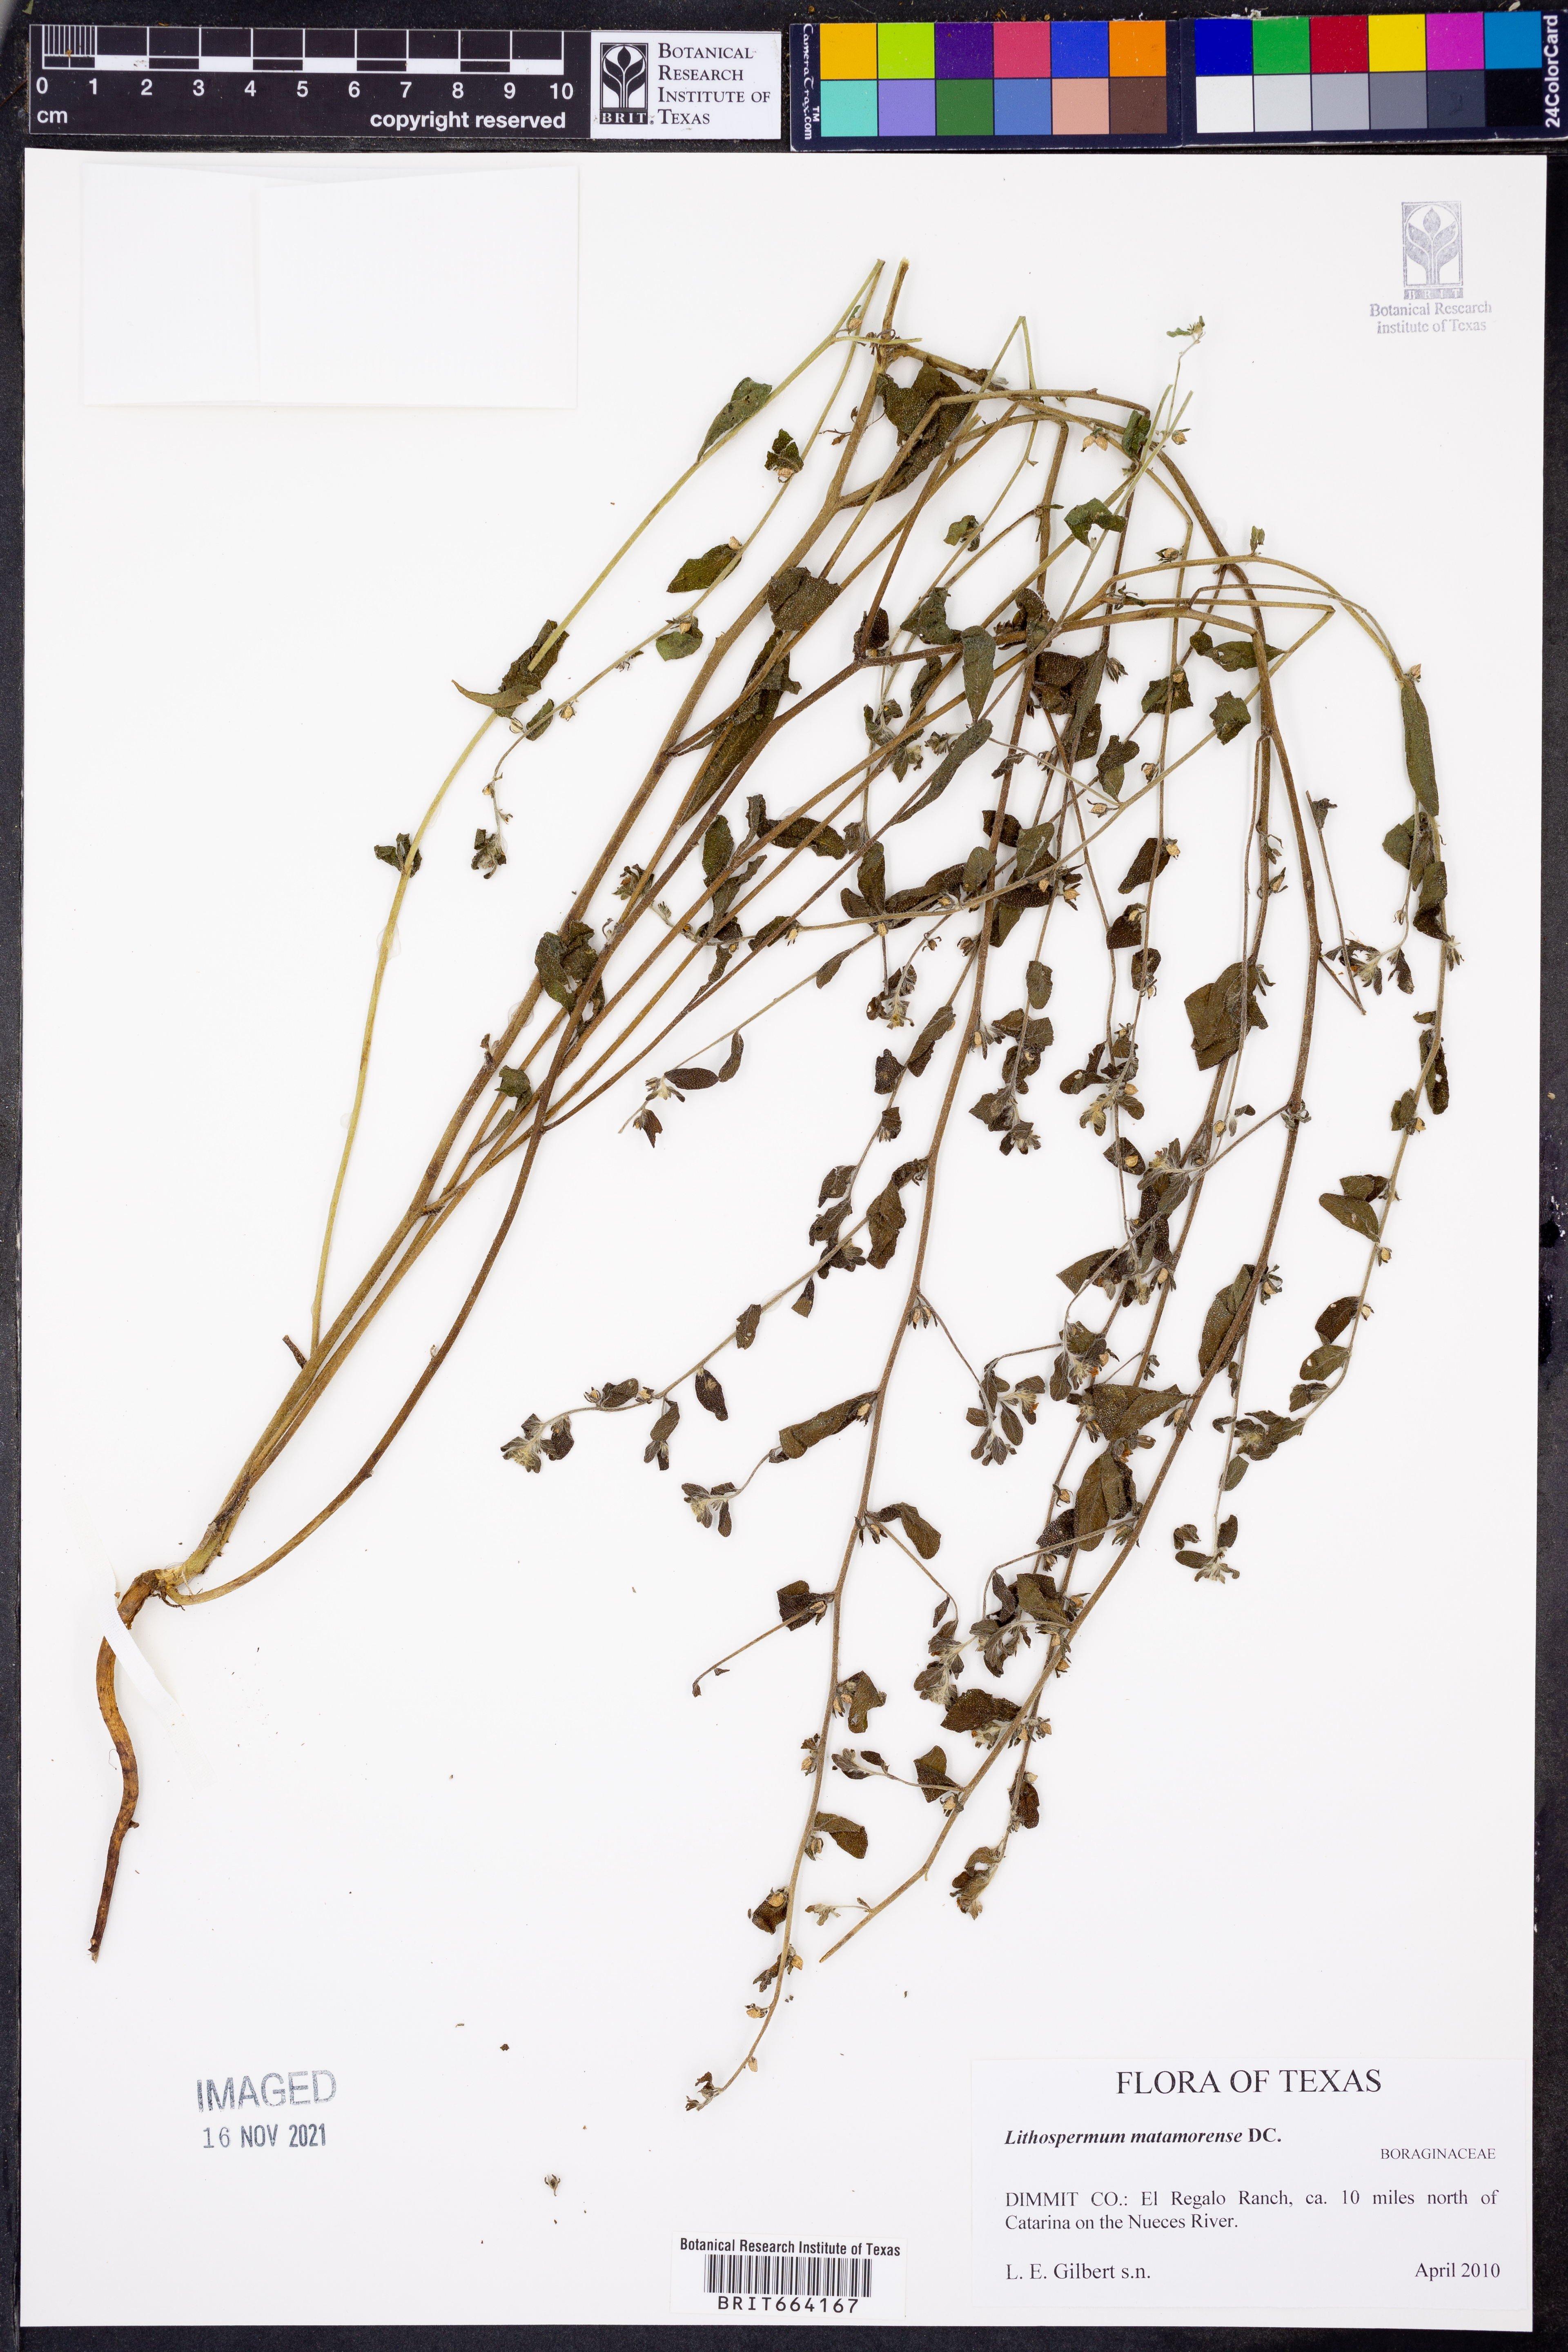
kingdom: Plantae
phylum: Tracheophyta
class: Magnoliopsida
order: Boraginales
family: Boraginaceae
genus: Lithospermum
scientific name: Lithospermum matamorense
